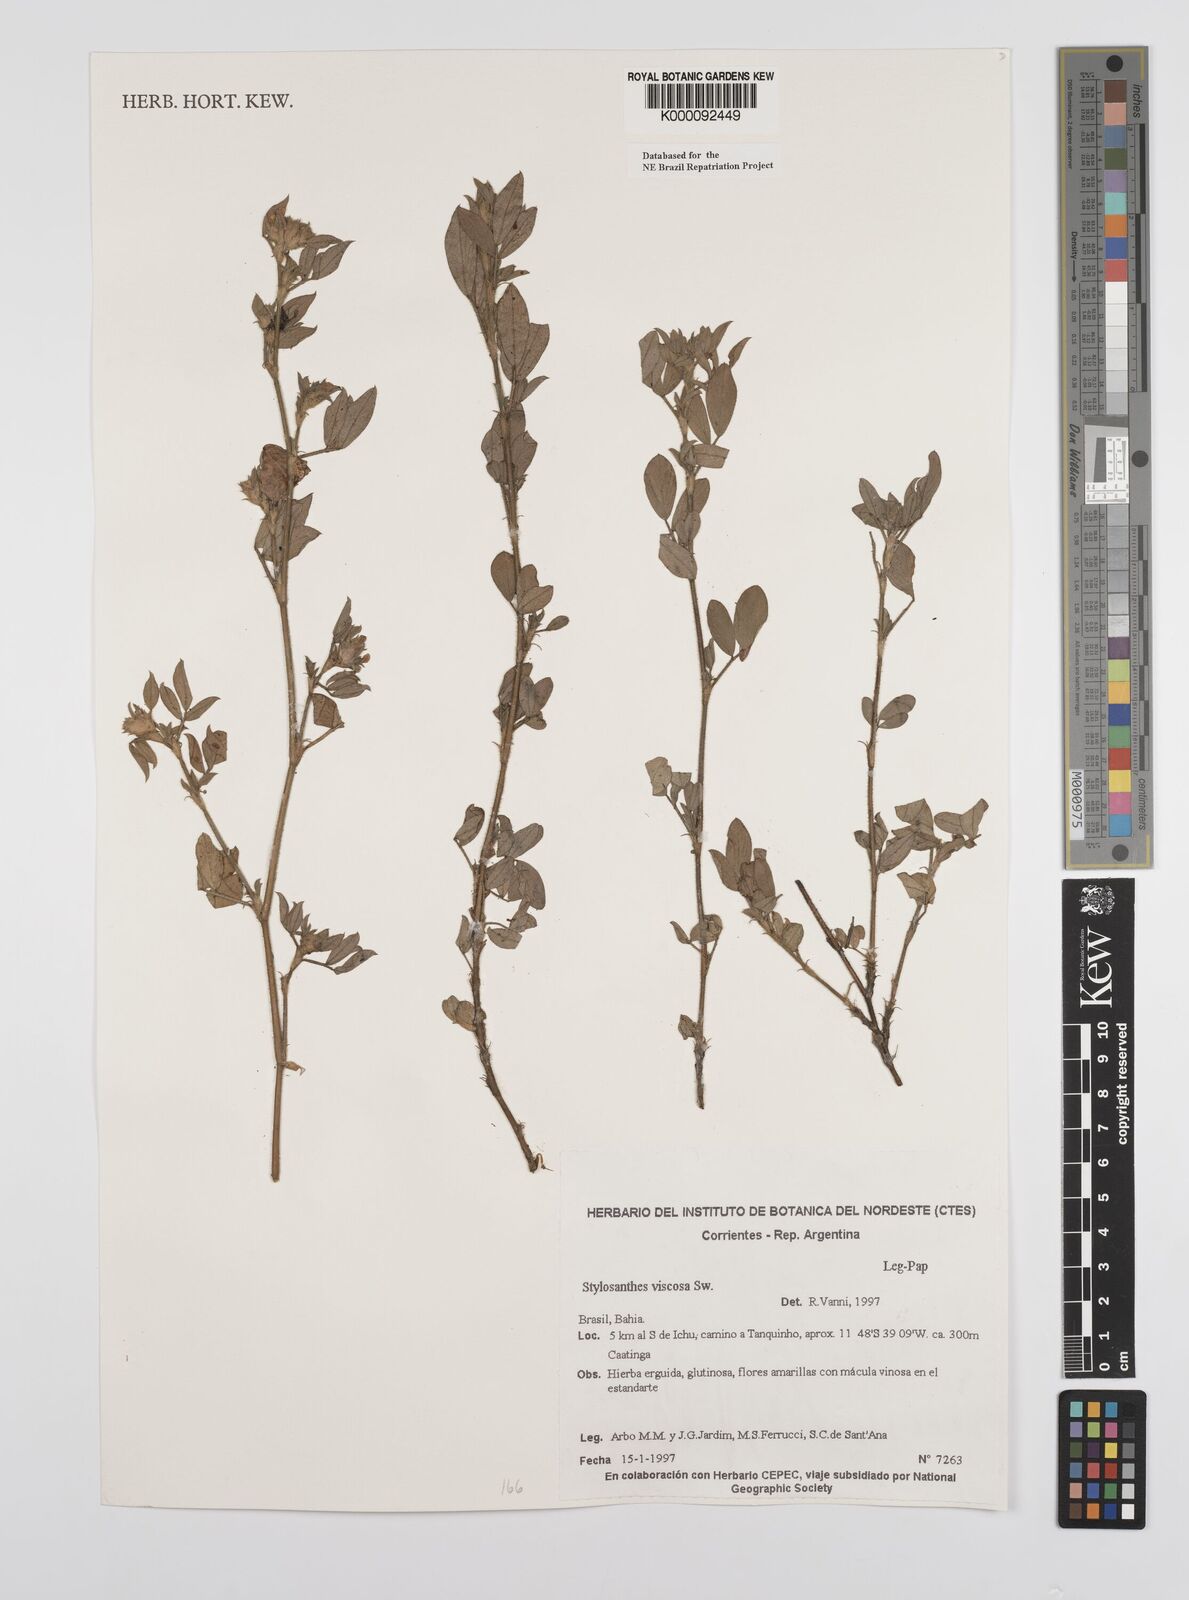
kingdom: Plantae
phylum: Tracheophyta
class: Magnoliopsida
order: Fabales
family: Fabaceae
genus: Stylosanthes
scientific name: Stylosanthes viscosa
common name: Viscid pencil-flower
